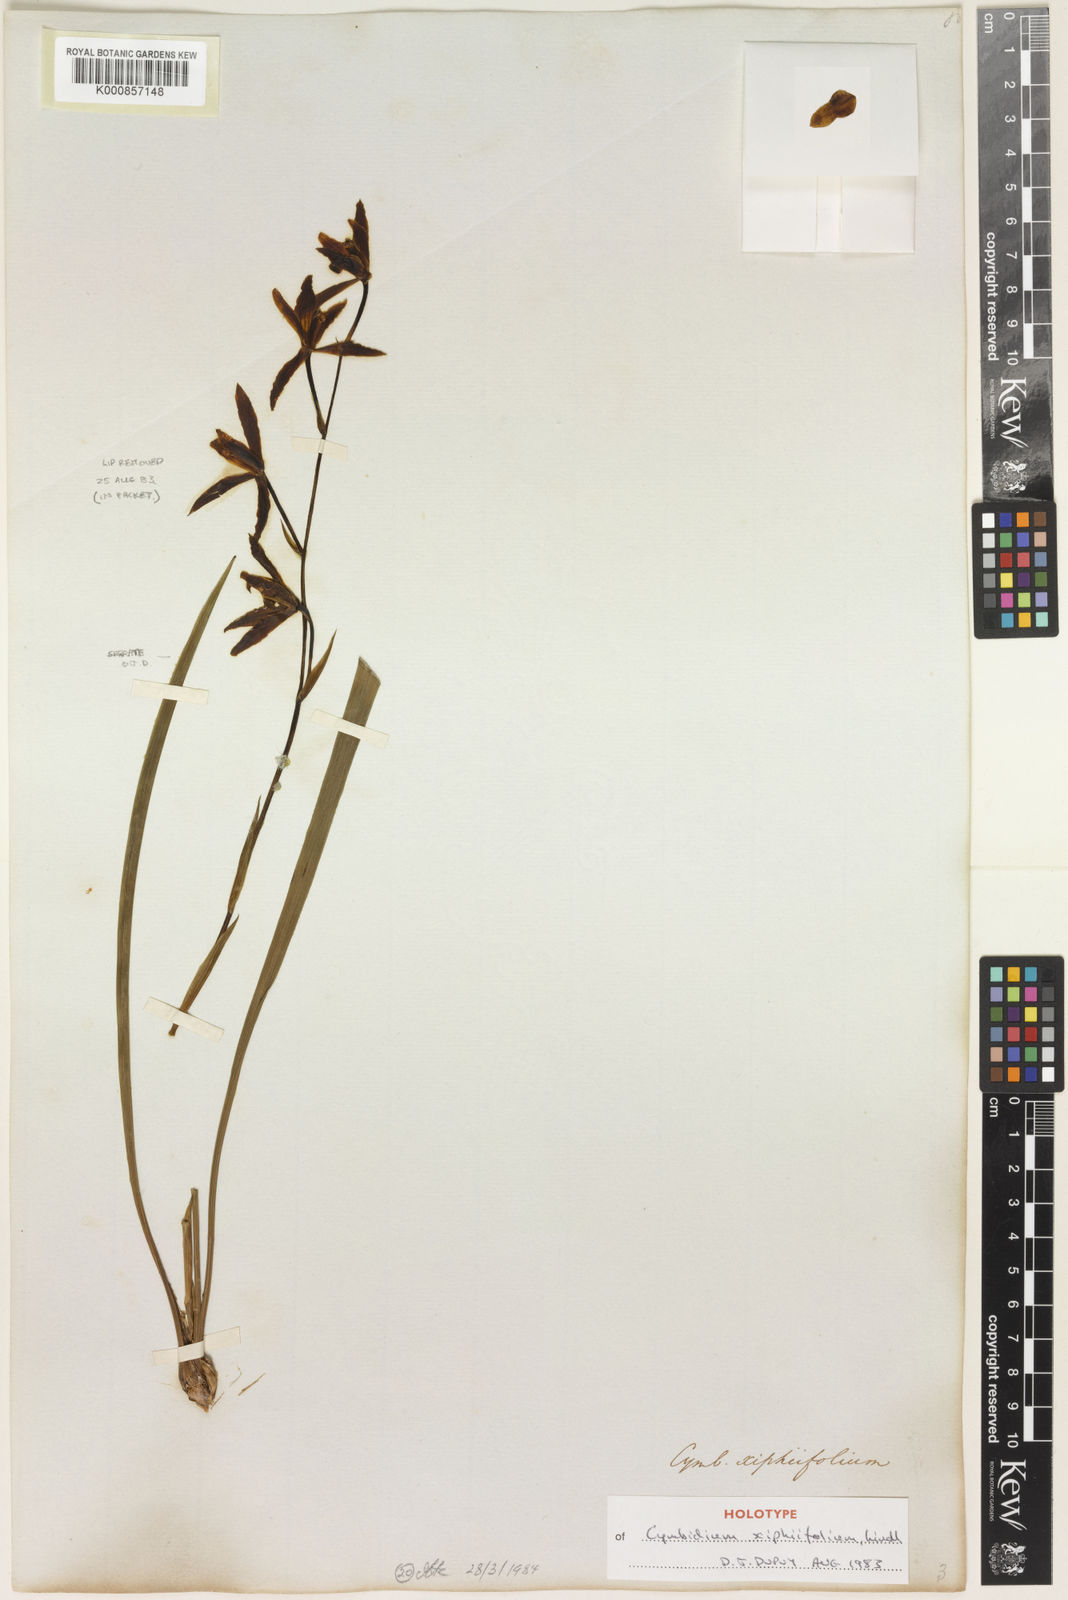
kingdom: Plantae
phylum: Tracheophyta
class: Liliopsida
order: Asparagales
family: Orchidaceae
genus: Cymbidium
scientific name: Cymbidium ensifolium
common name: Fukien-orchid
